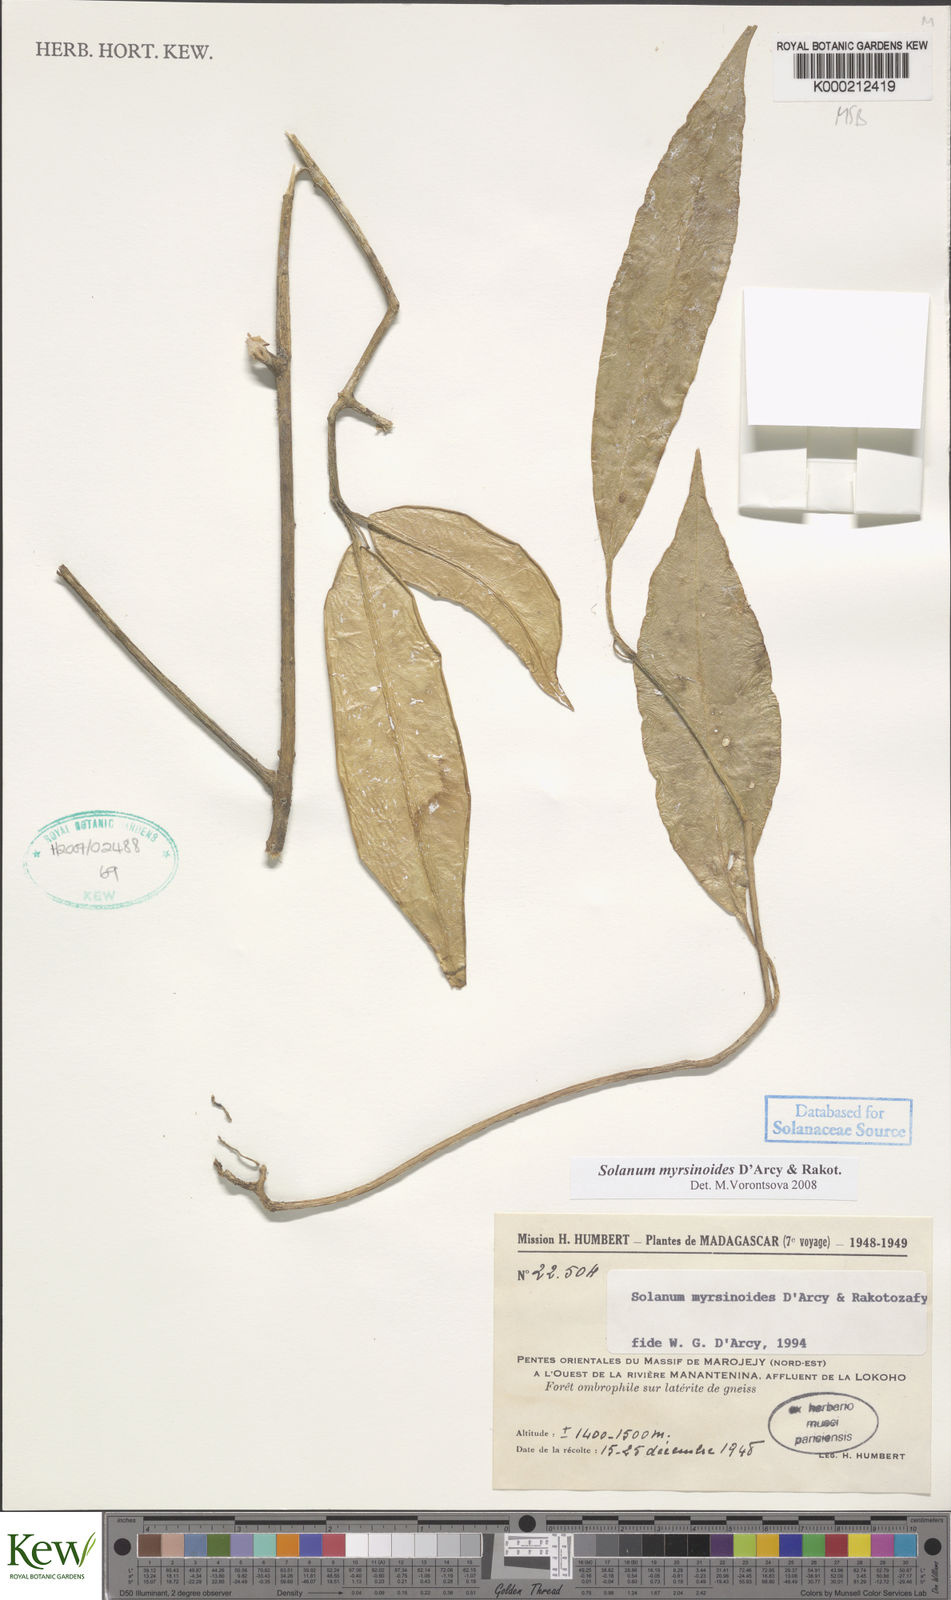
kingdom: Plantae
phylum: Tracheophyta
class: Magnoliopsida
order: Solanales
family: Solanaceae
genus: Solanum
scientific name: Solanum myrsinoides
